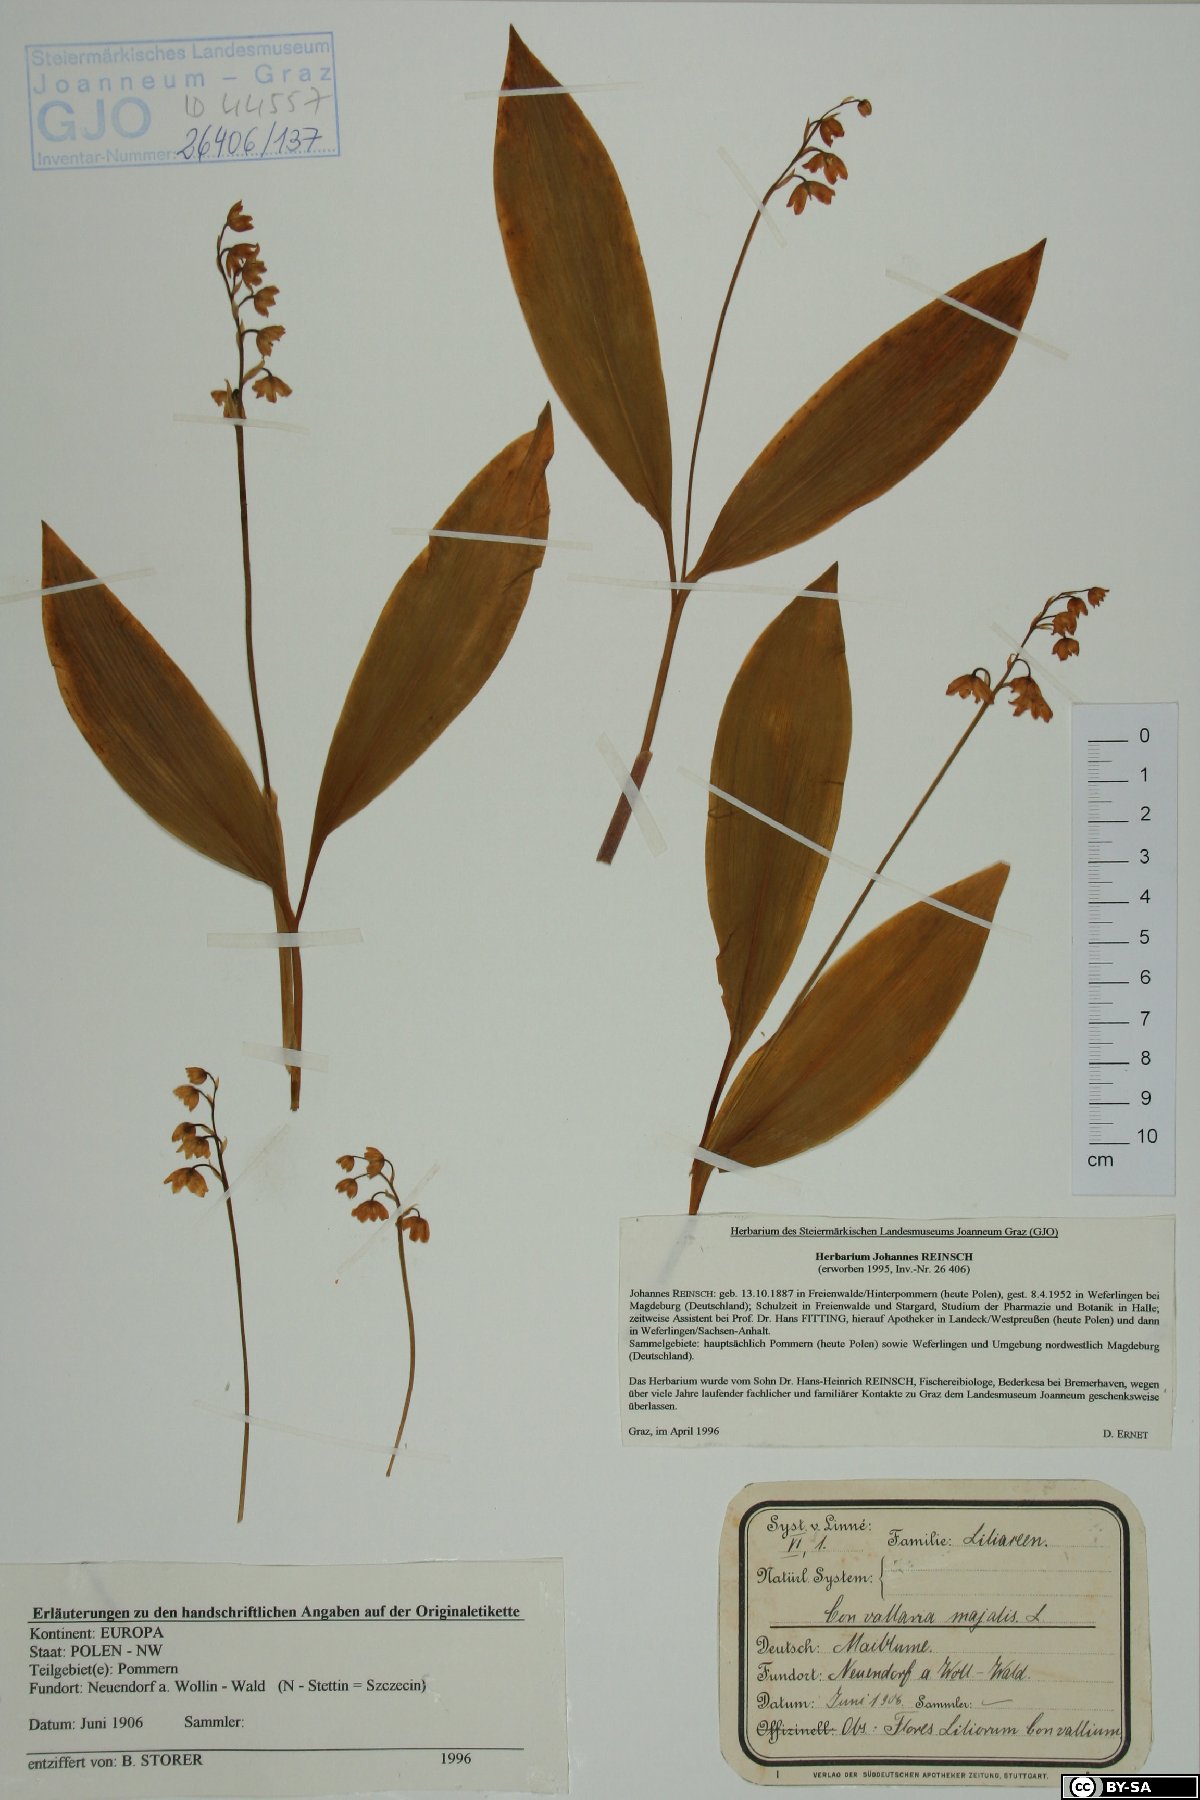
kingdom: Plantae
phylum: Tracheophyta
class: Liliopsida
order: Asparagales
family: Asparagaceae
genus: Convallaria
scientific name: Convallaria majalis
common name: Lily-of-the-valley
